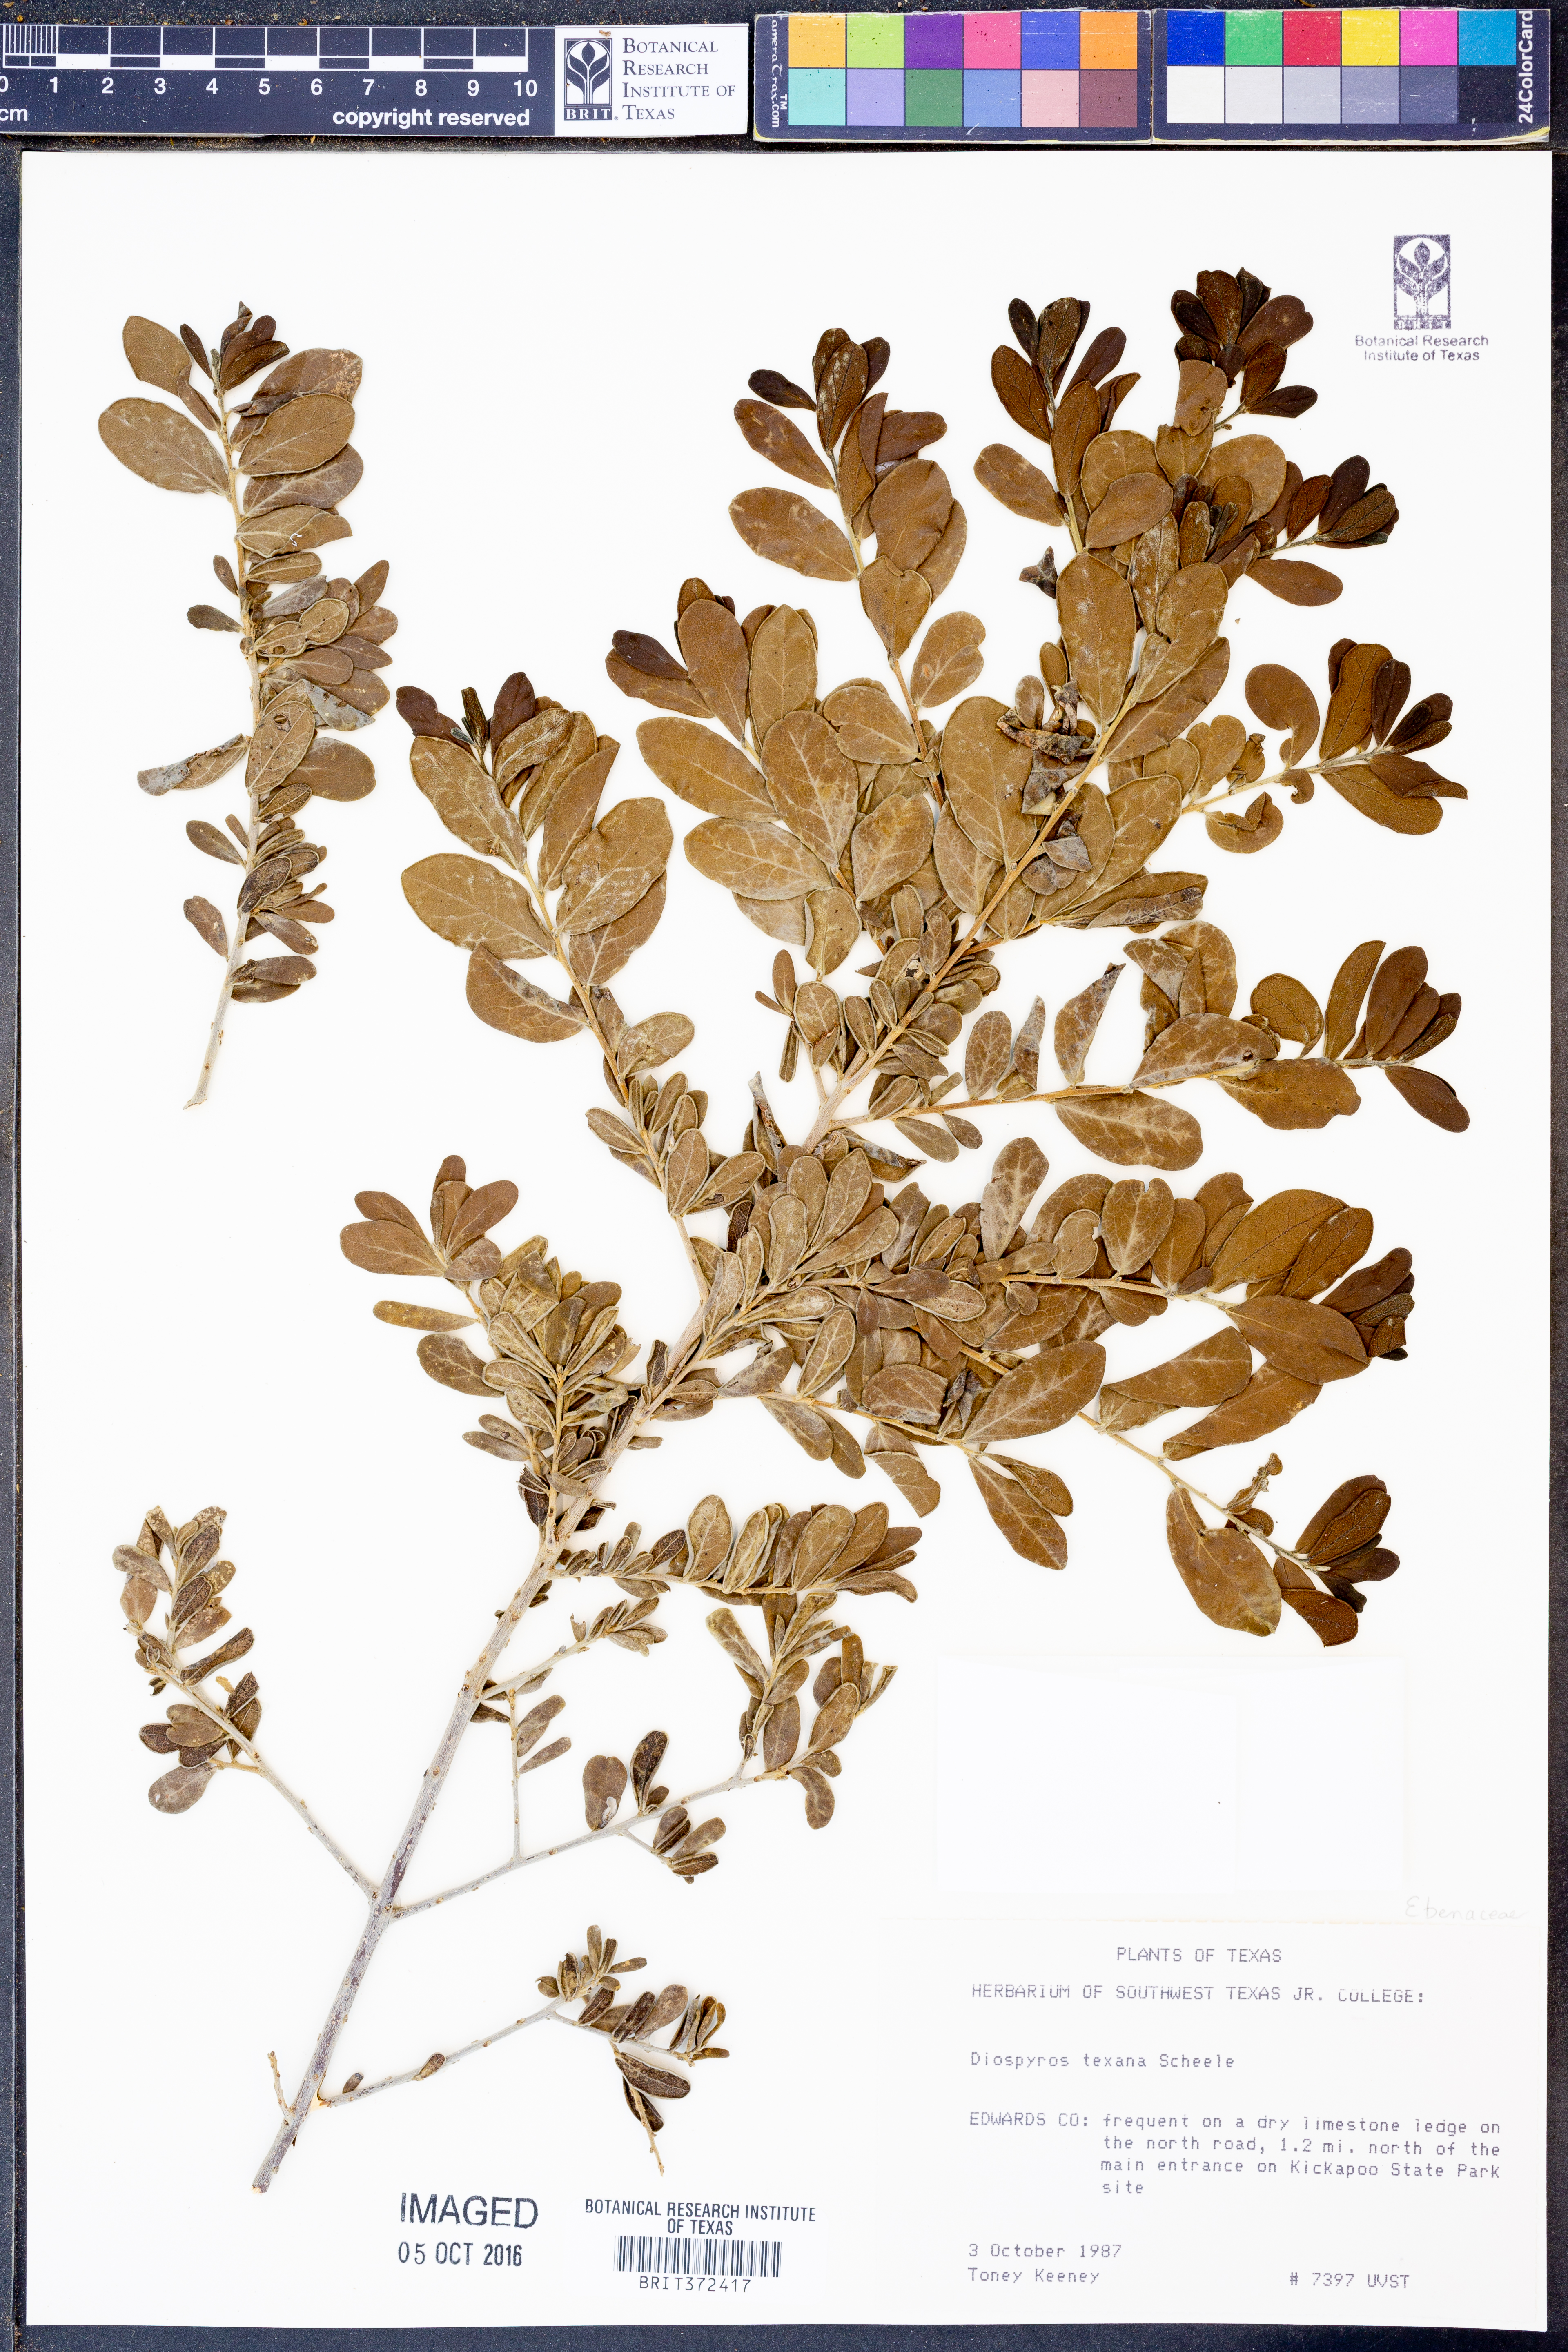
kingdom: Plantae
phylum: Tracheophyta
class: Magnoliopsida
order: Ericales
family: Ebenaceae
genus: Diospyros
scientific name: Diospyros texana
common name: Texas persimmon
